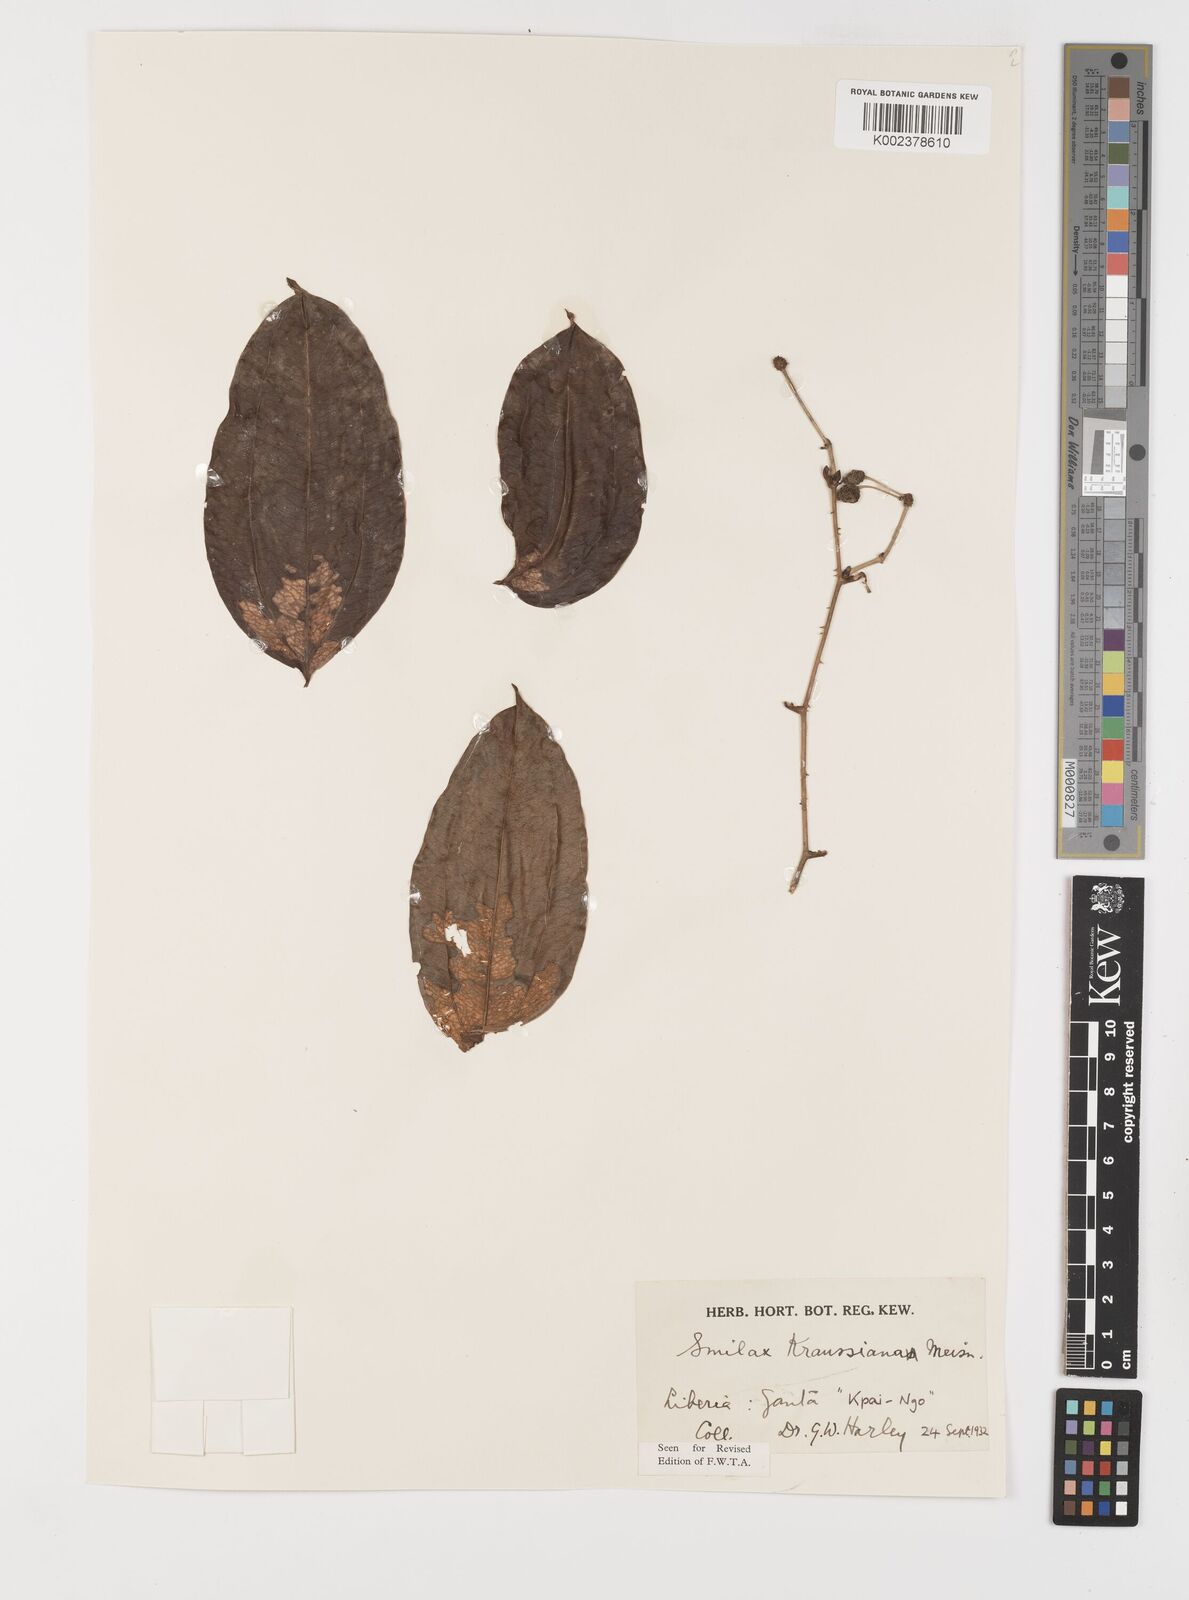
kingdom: Plantae
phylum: Tracheophyta
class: Liliopsida
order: Liliales
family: Smilacaceae
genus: Smilax
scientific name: Smilax anceps
